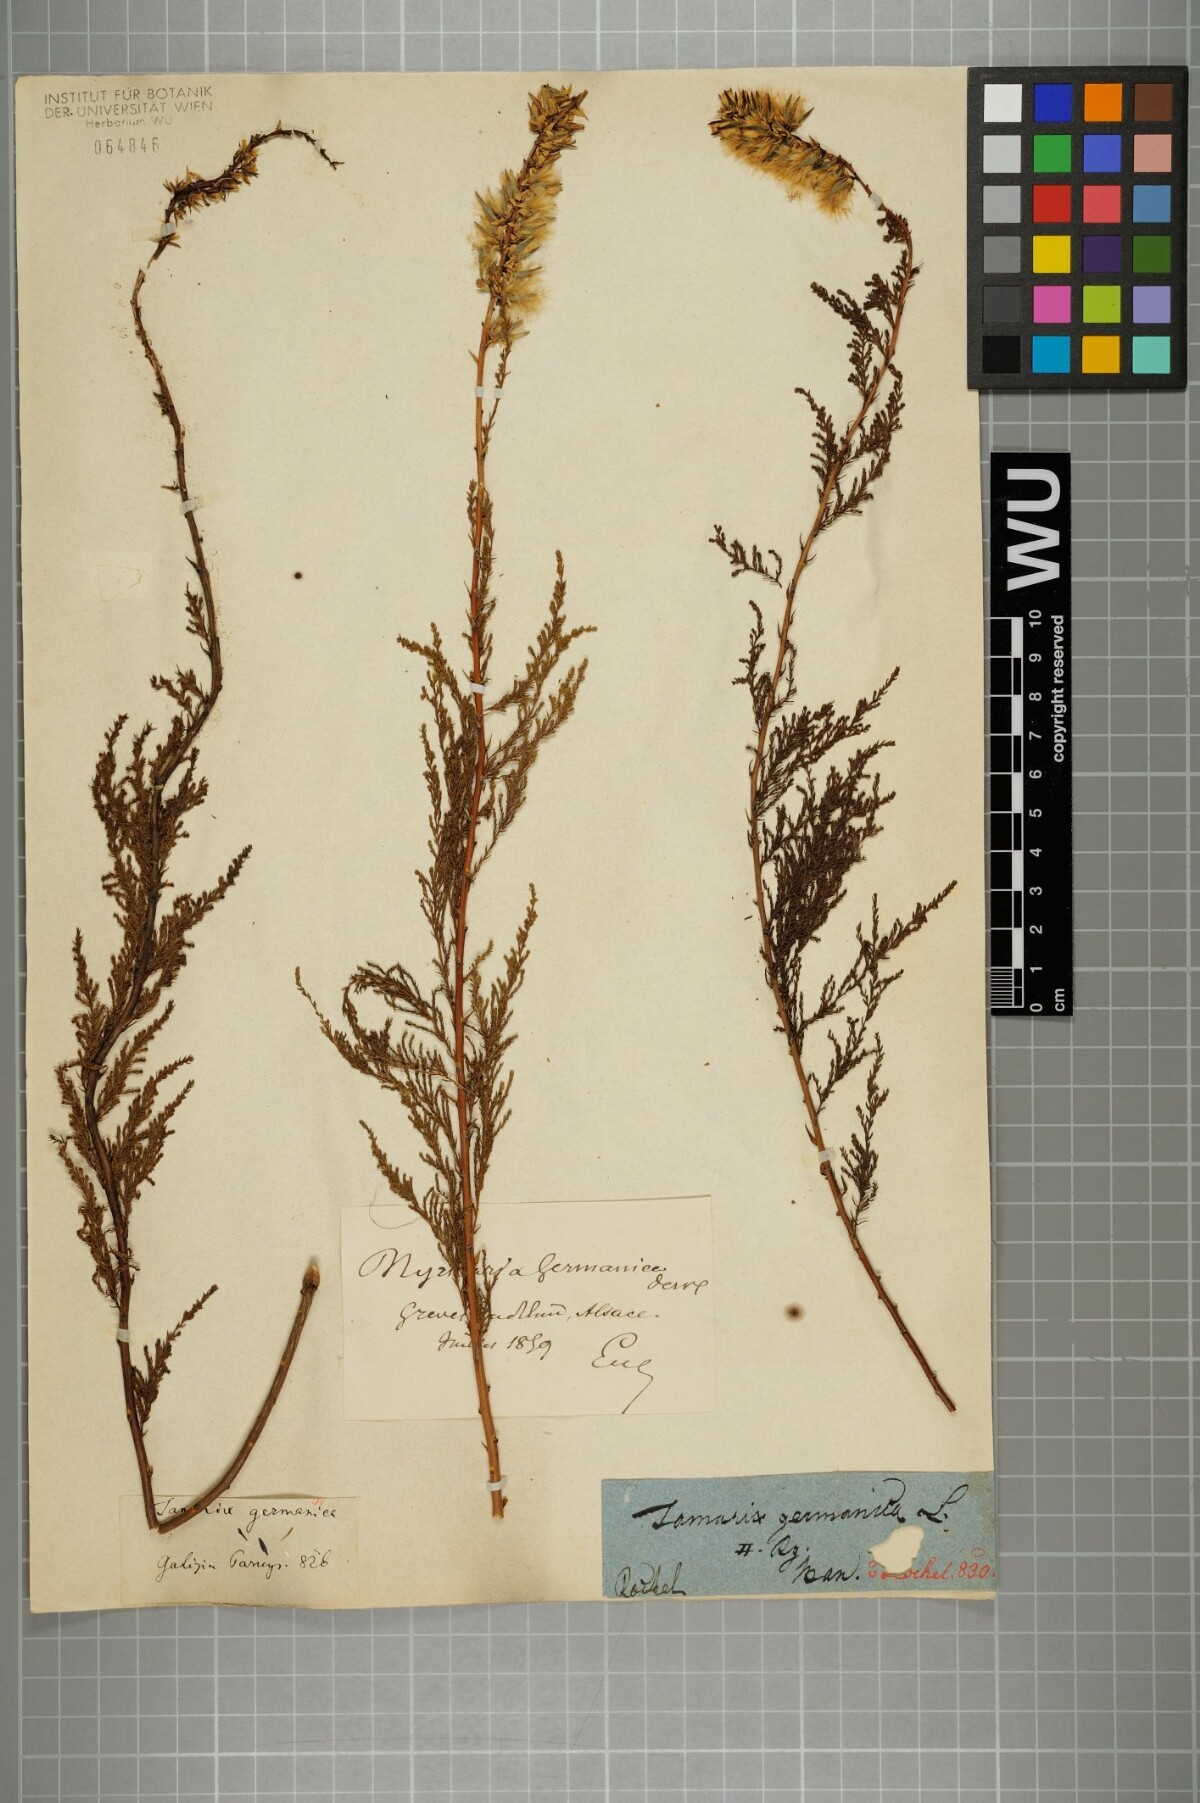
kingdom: Plantae
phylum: Tracheophyta
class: Magnoliopsida
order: Caryophyllales
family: Tamaricaceae
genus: Myricaria
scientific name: Myricaria germanica
